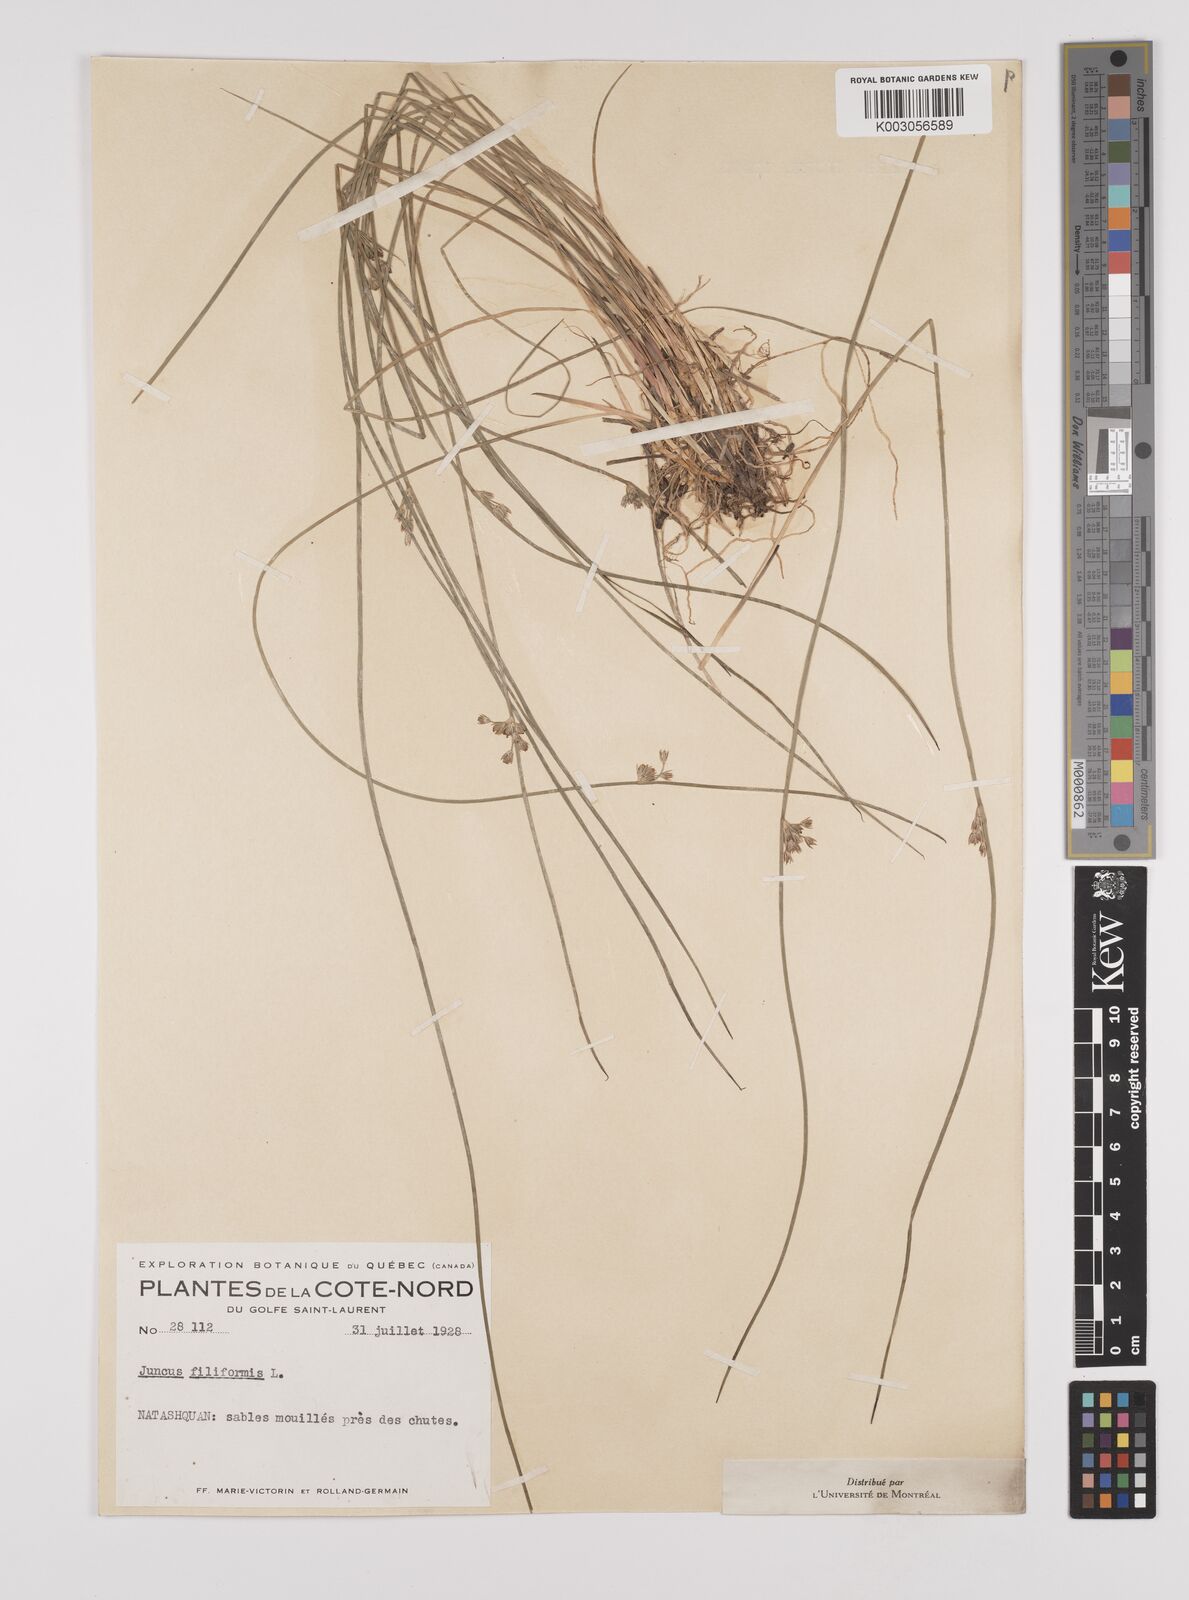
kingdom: Plantae
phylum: Tracheophyta
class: Liliopsida
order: Poales
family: Juncaceae
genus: Juncus
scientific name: Juncus filiformis
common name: Thread rush
